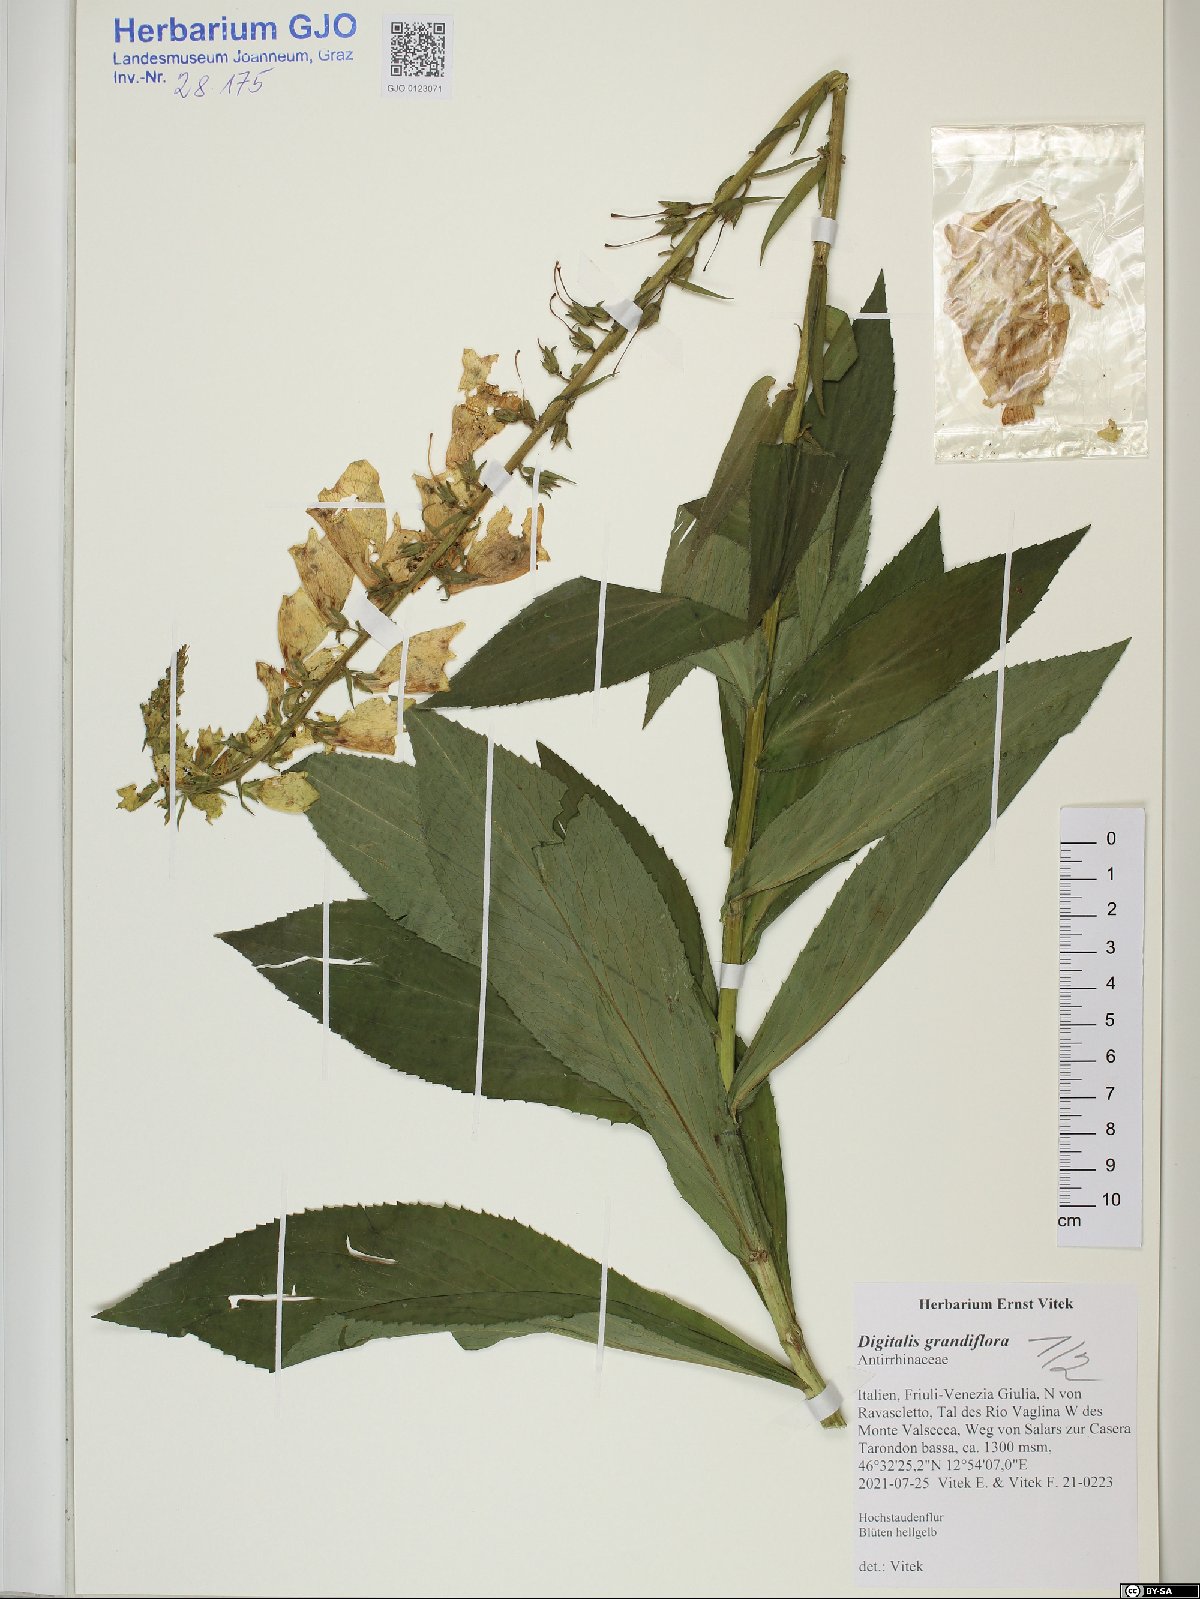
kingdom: Plantae
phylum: Tracheophyta
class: Magnoliopsida
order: Lamiales
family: Plantaginaceae
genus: Digitalis
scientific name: Digitalis grandiflora
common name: Yellow foxglove
